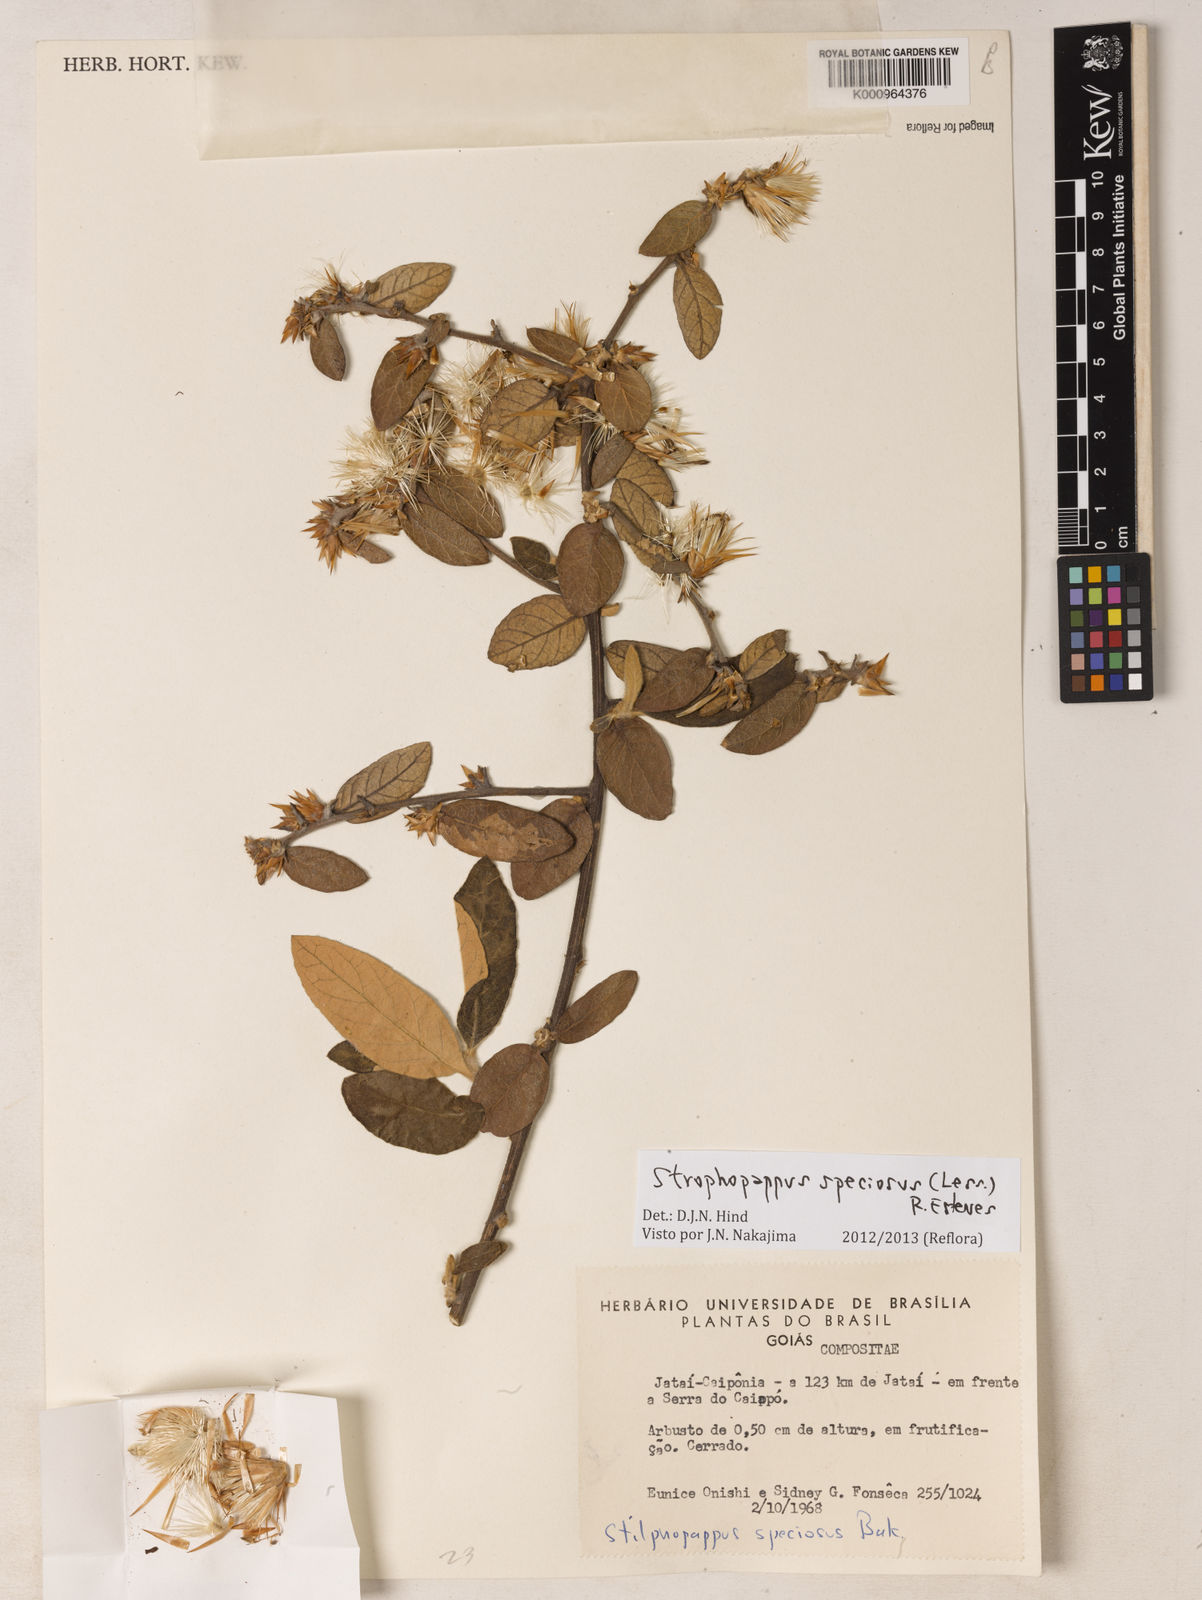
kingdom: Plantae
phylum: Tracheophyta
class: Magnoliopsida
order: Asterales
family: Asteraceae
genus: Stilpnopappus
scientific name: Stilpnopappus speciosus
